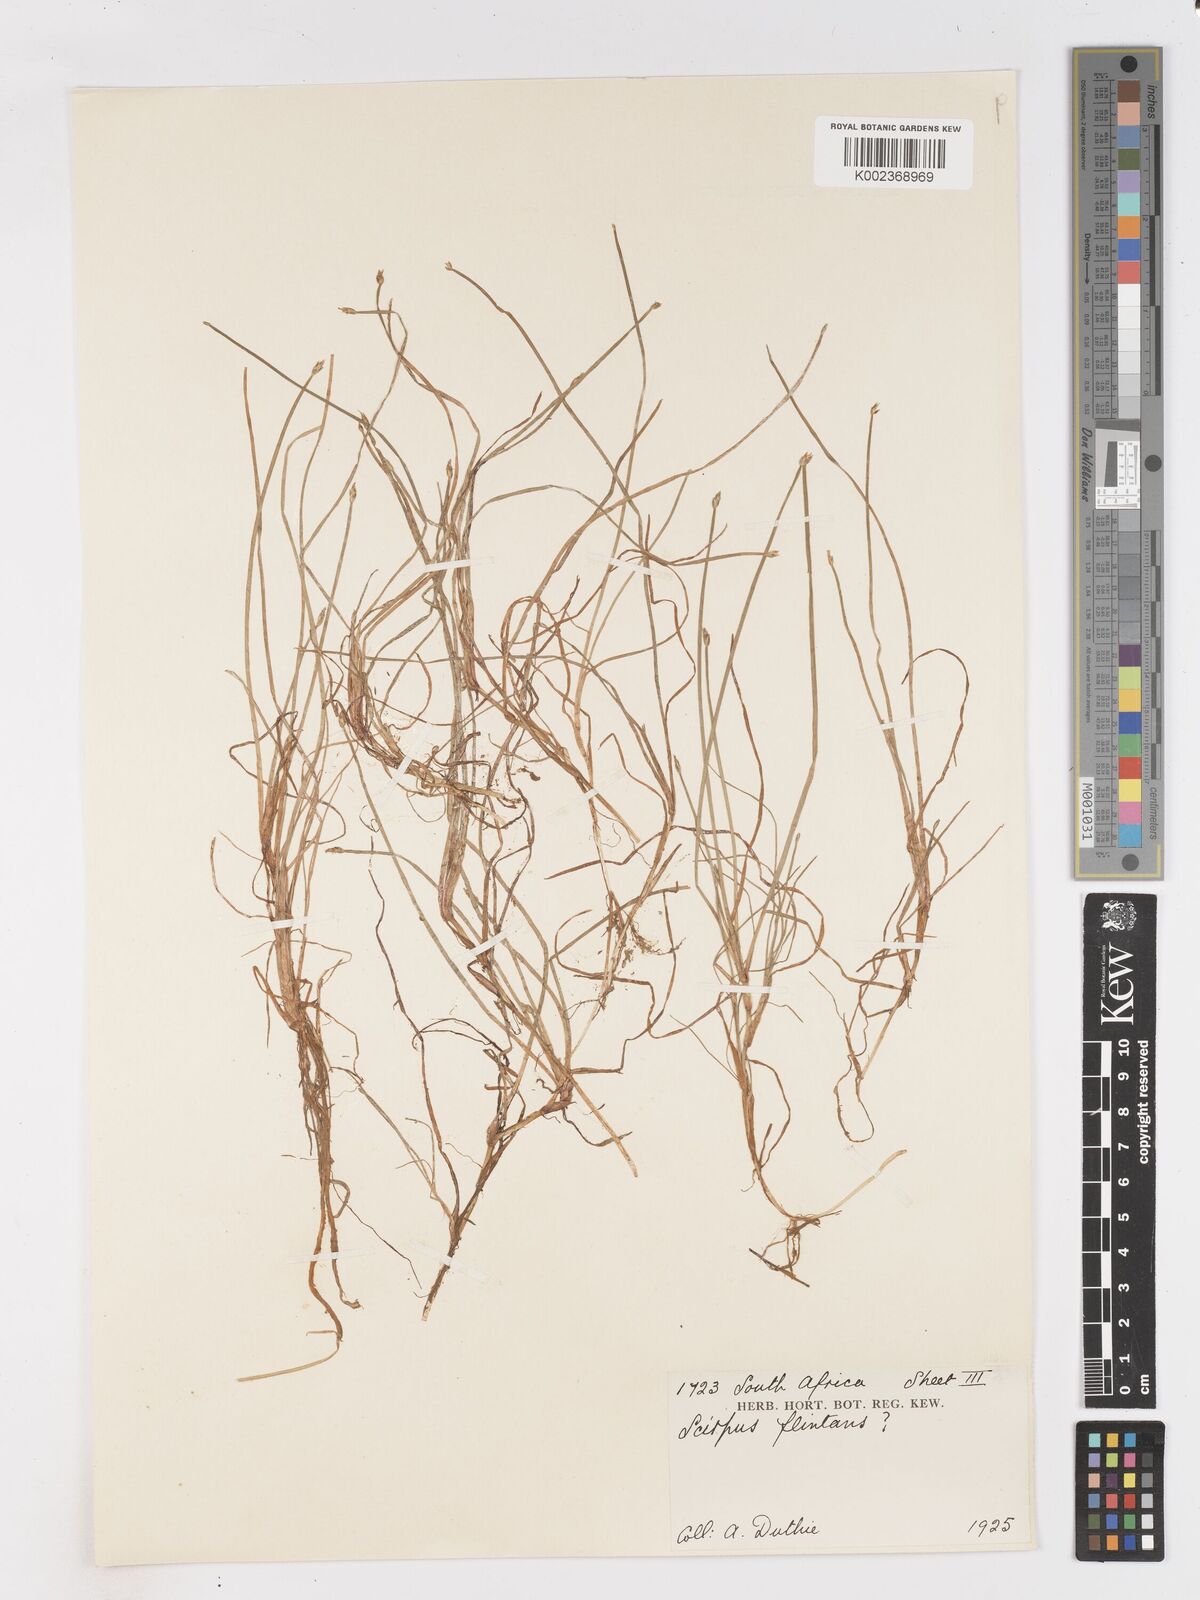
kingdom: Plantae
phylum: Tracheophyta
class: Liliopsida
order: Poales
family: Cyperaceae
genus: Isolepis
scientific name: Isolepis striata
